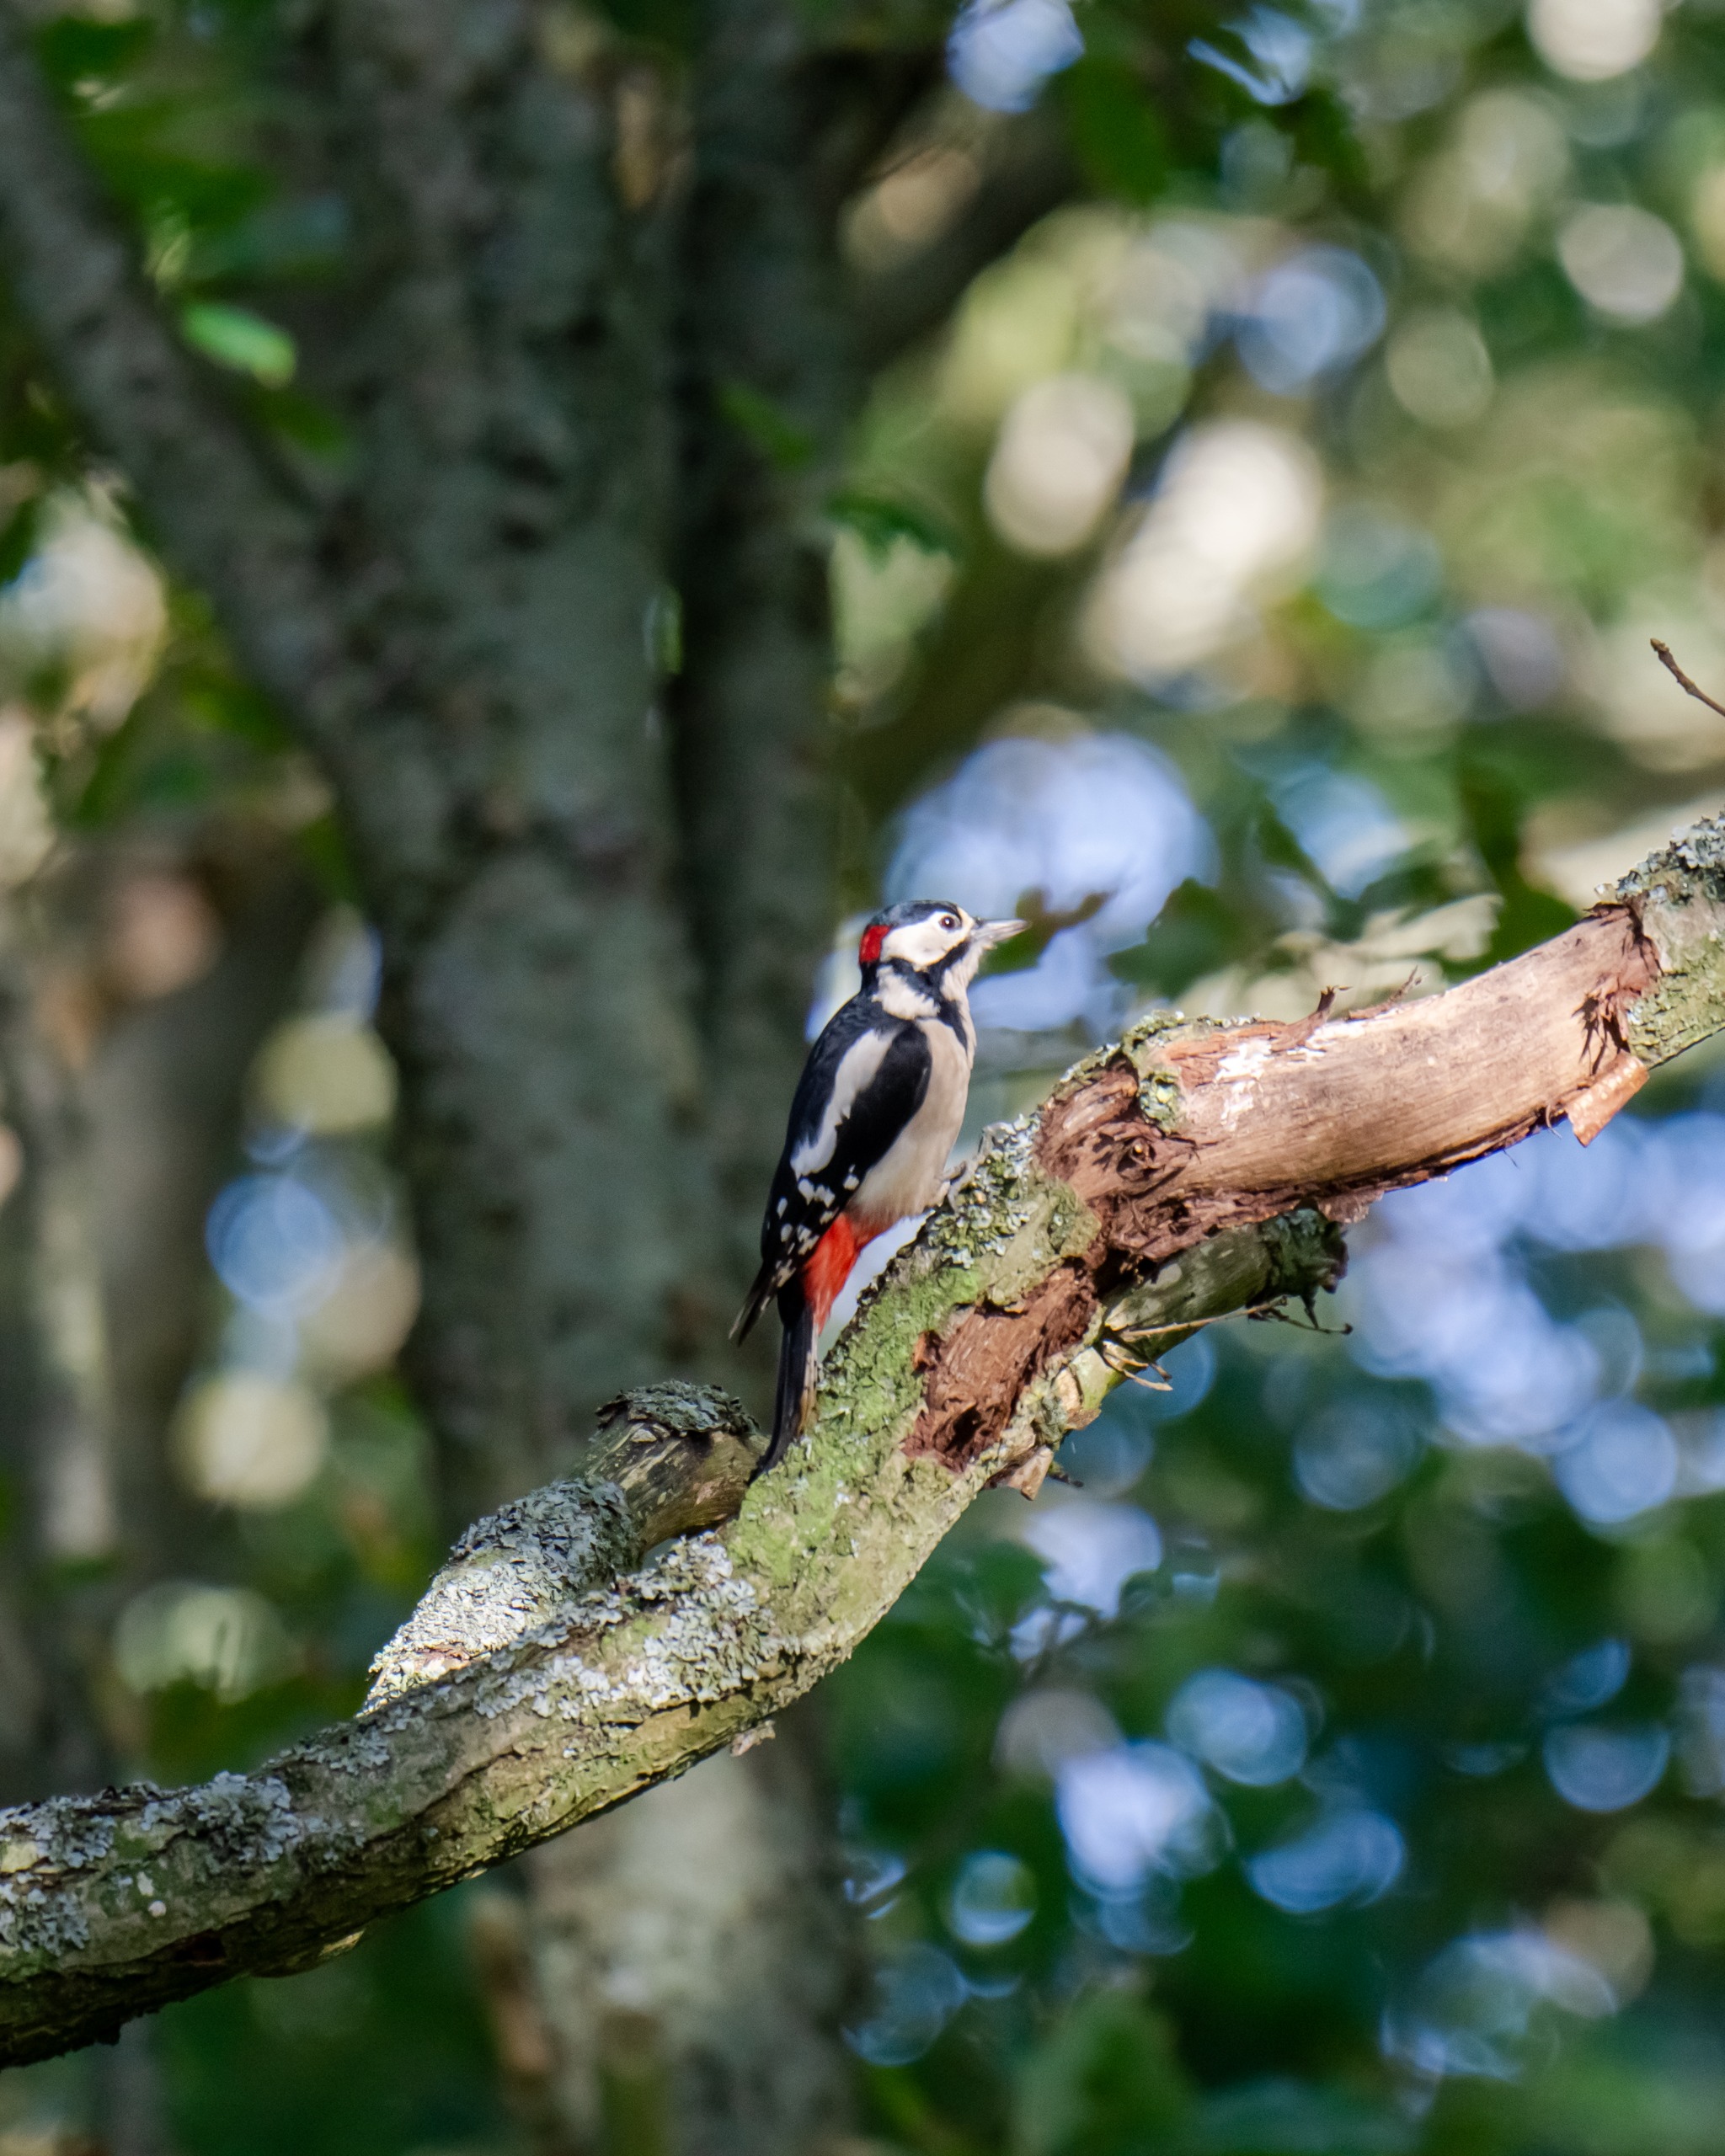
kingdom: Animalia
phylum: Chordata
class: Aves
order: Piciformes
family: Picidae
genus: Dendrocopos
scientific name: Dendrocopos major
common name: Stor flagspætte
